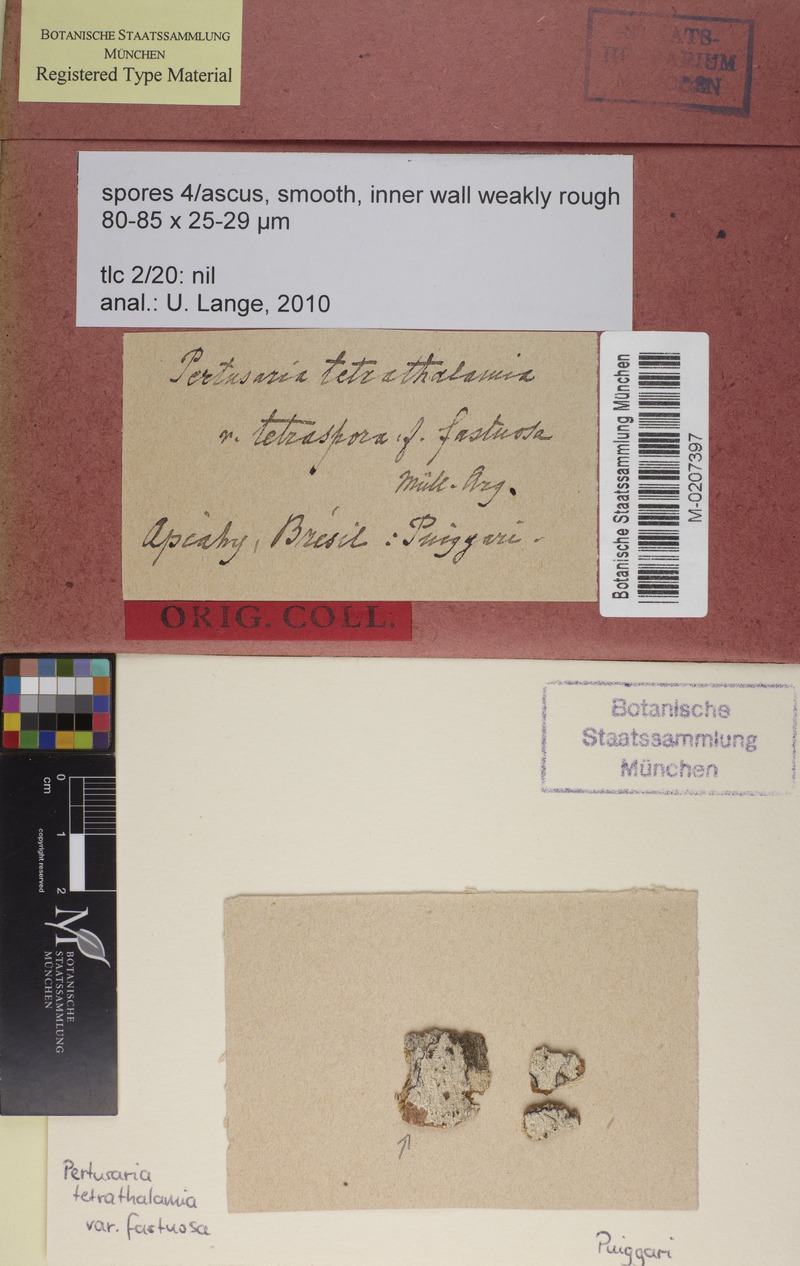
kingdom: Fungi
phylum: Ascomycota
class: Lecanoromycetes
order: Pertusariales
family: Pertusariaceae
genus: Pertusaria
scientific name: Pertusaria tetrathalamia
